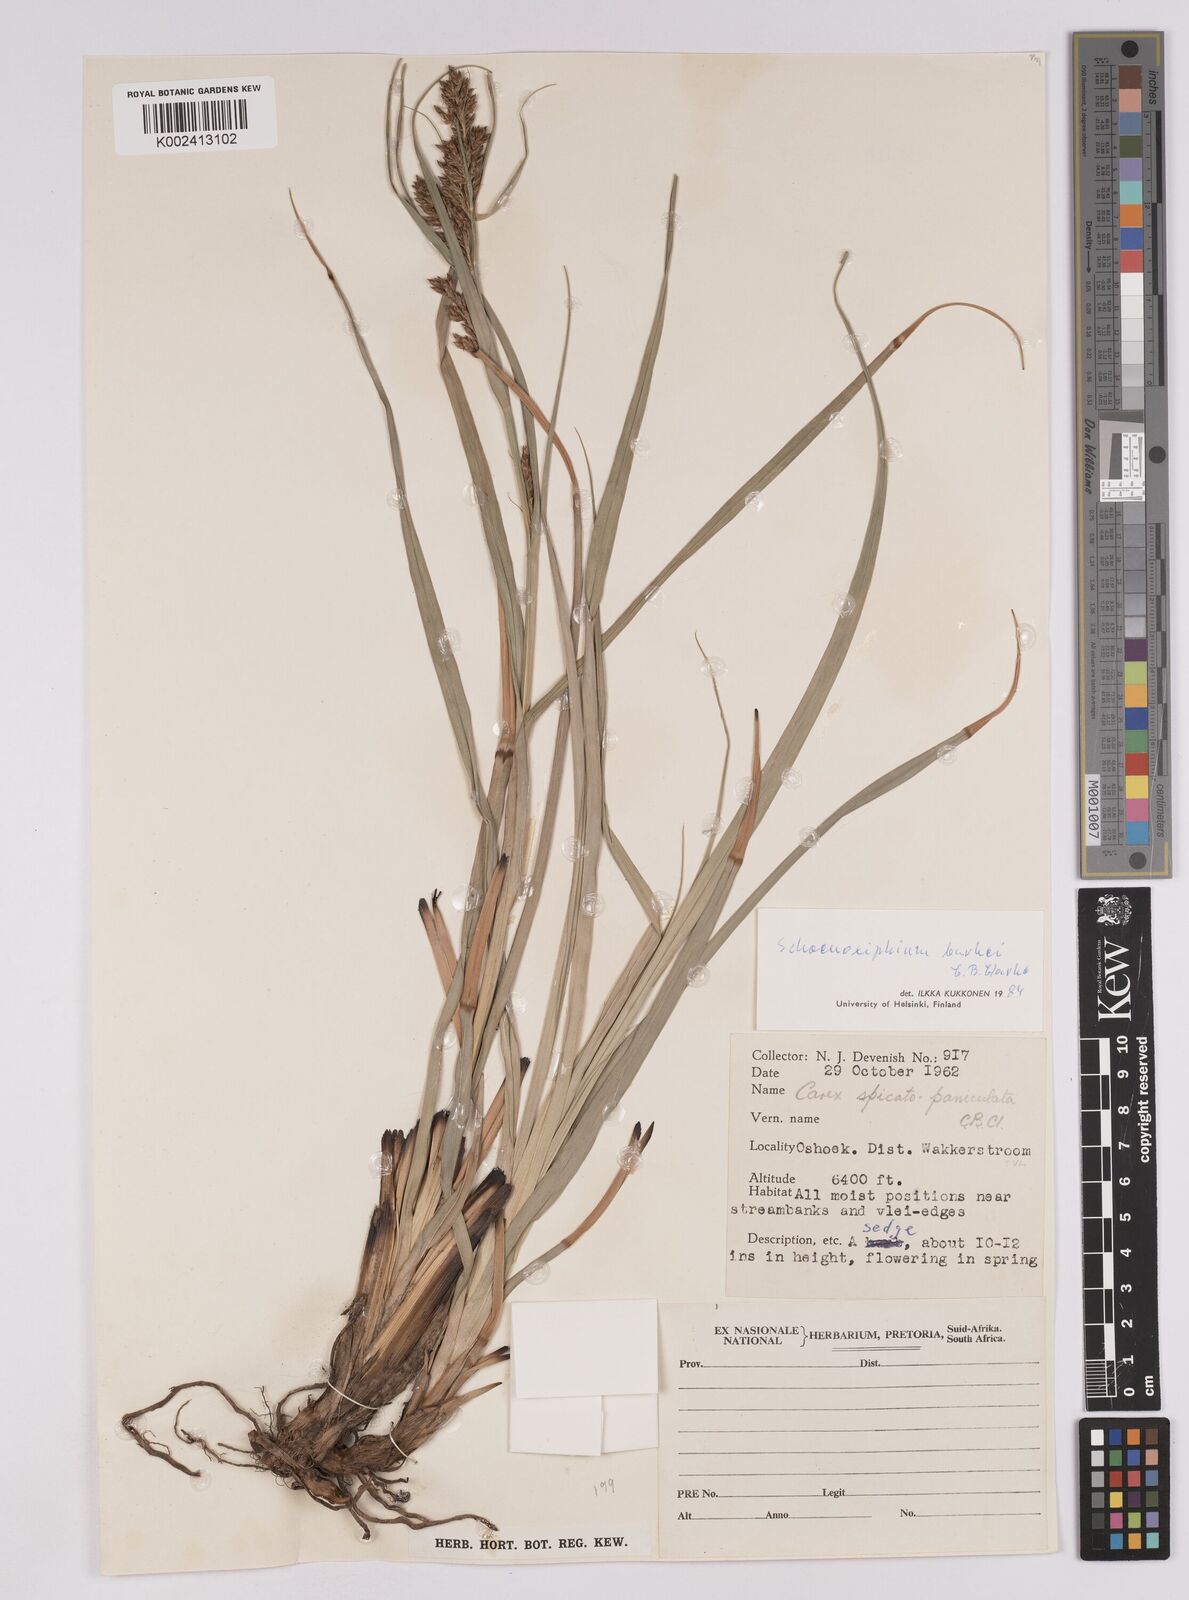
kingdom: Plantae
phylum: Tracheophyta
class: Liliopsida
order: Poales
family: Cyperaceae
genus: Carex
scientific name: Carex burkei
